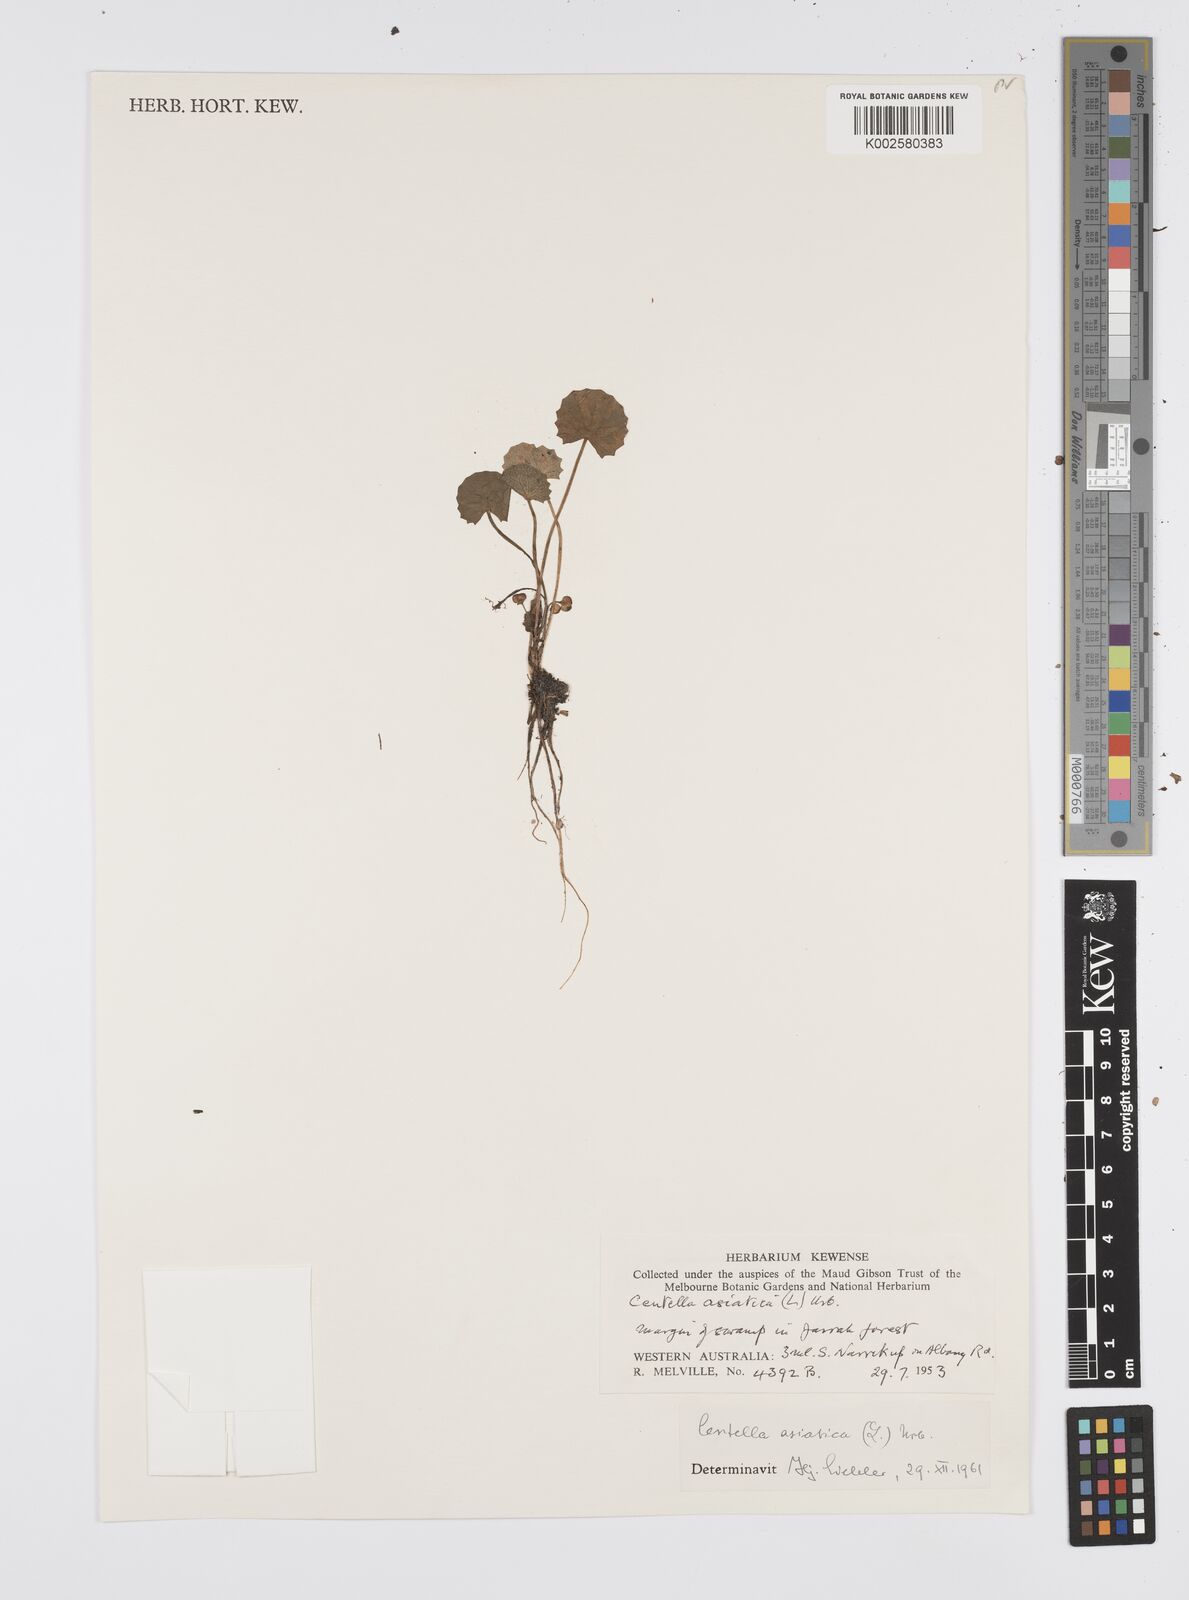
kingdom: Plantae
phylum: Tracheophyta
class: Magnoliopsida
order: Apiales
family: Apiaceae
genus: Centella
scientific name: Centella asiatica
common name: Spadeleaf
